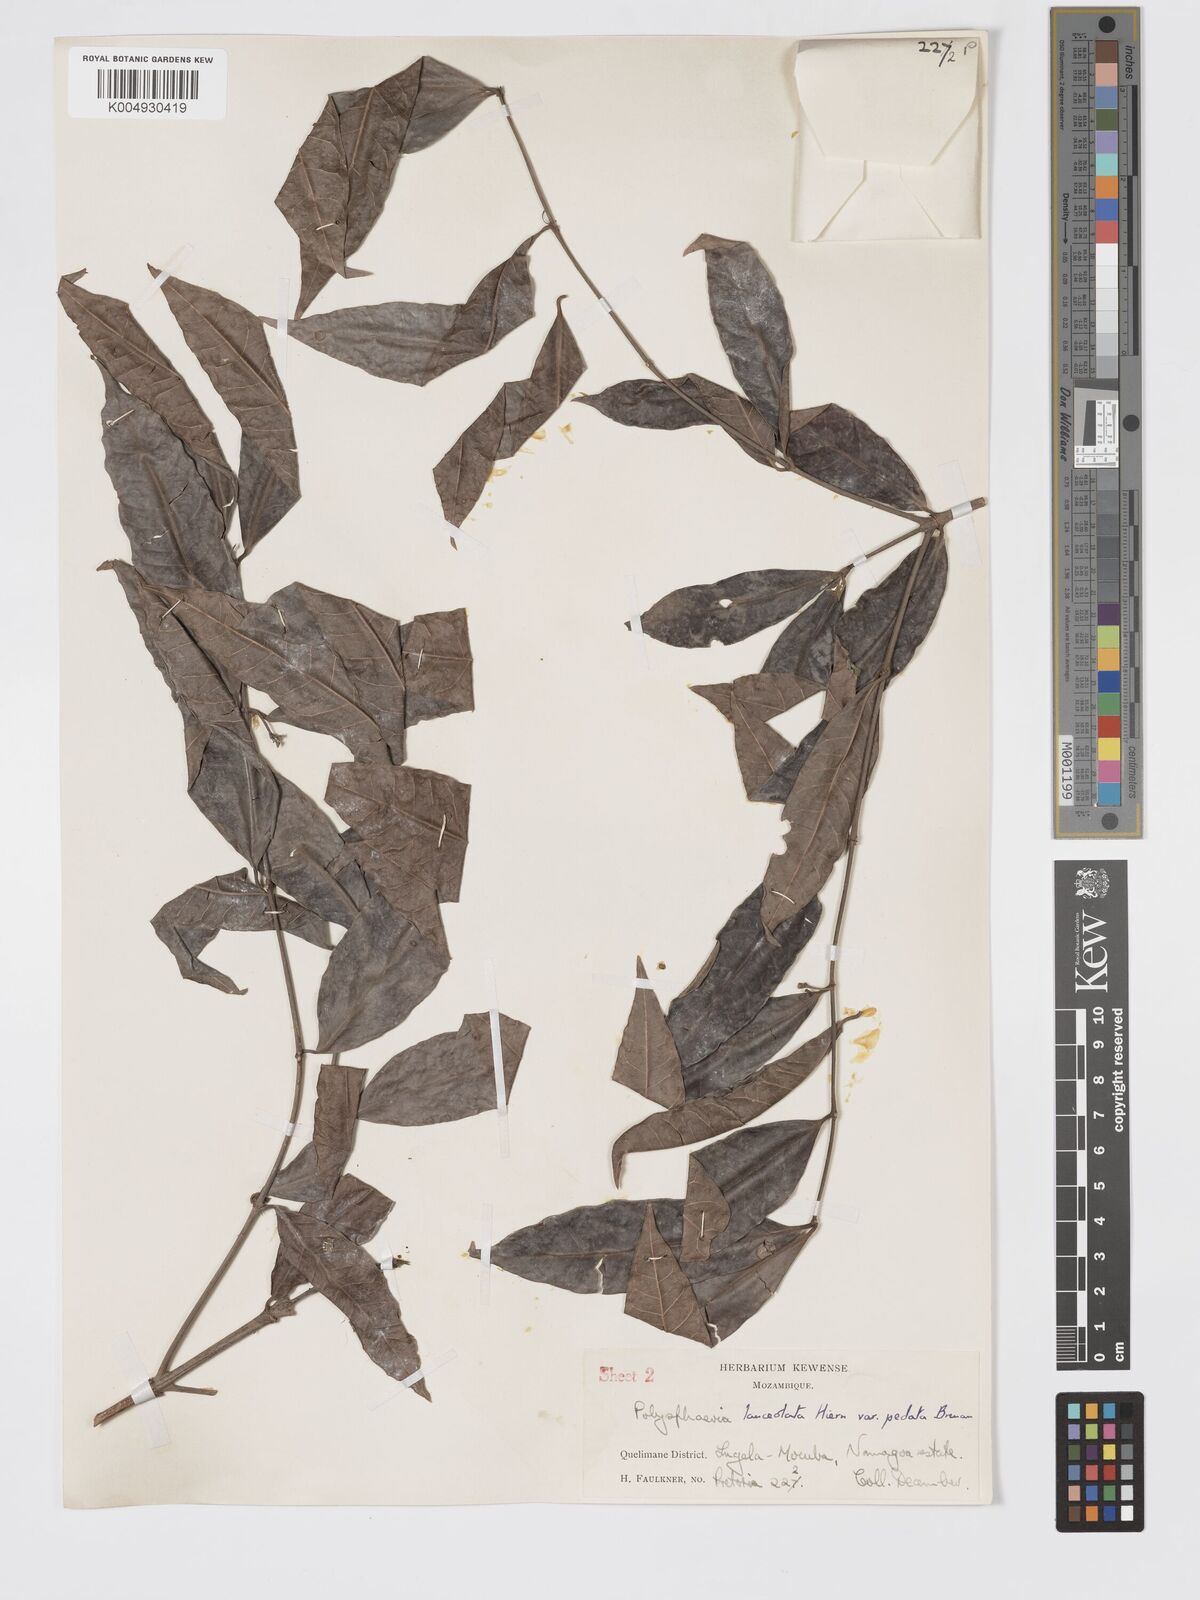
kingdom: Plantae
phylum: Tracheophyta
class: Magnoliopsida
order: Gentianales
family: Rubiaceae
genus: Polysphaeria
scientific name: Polysphaeria lanceolata
